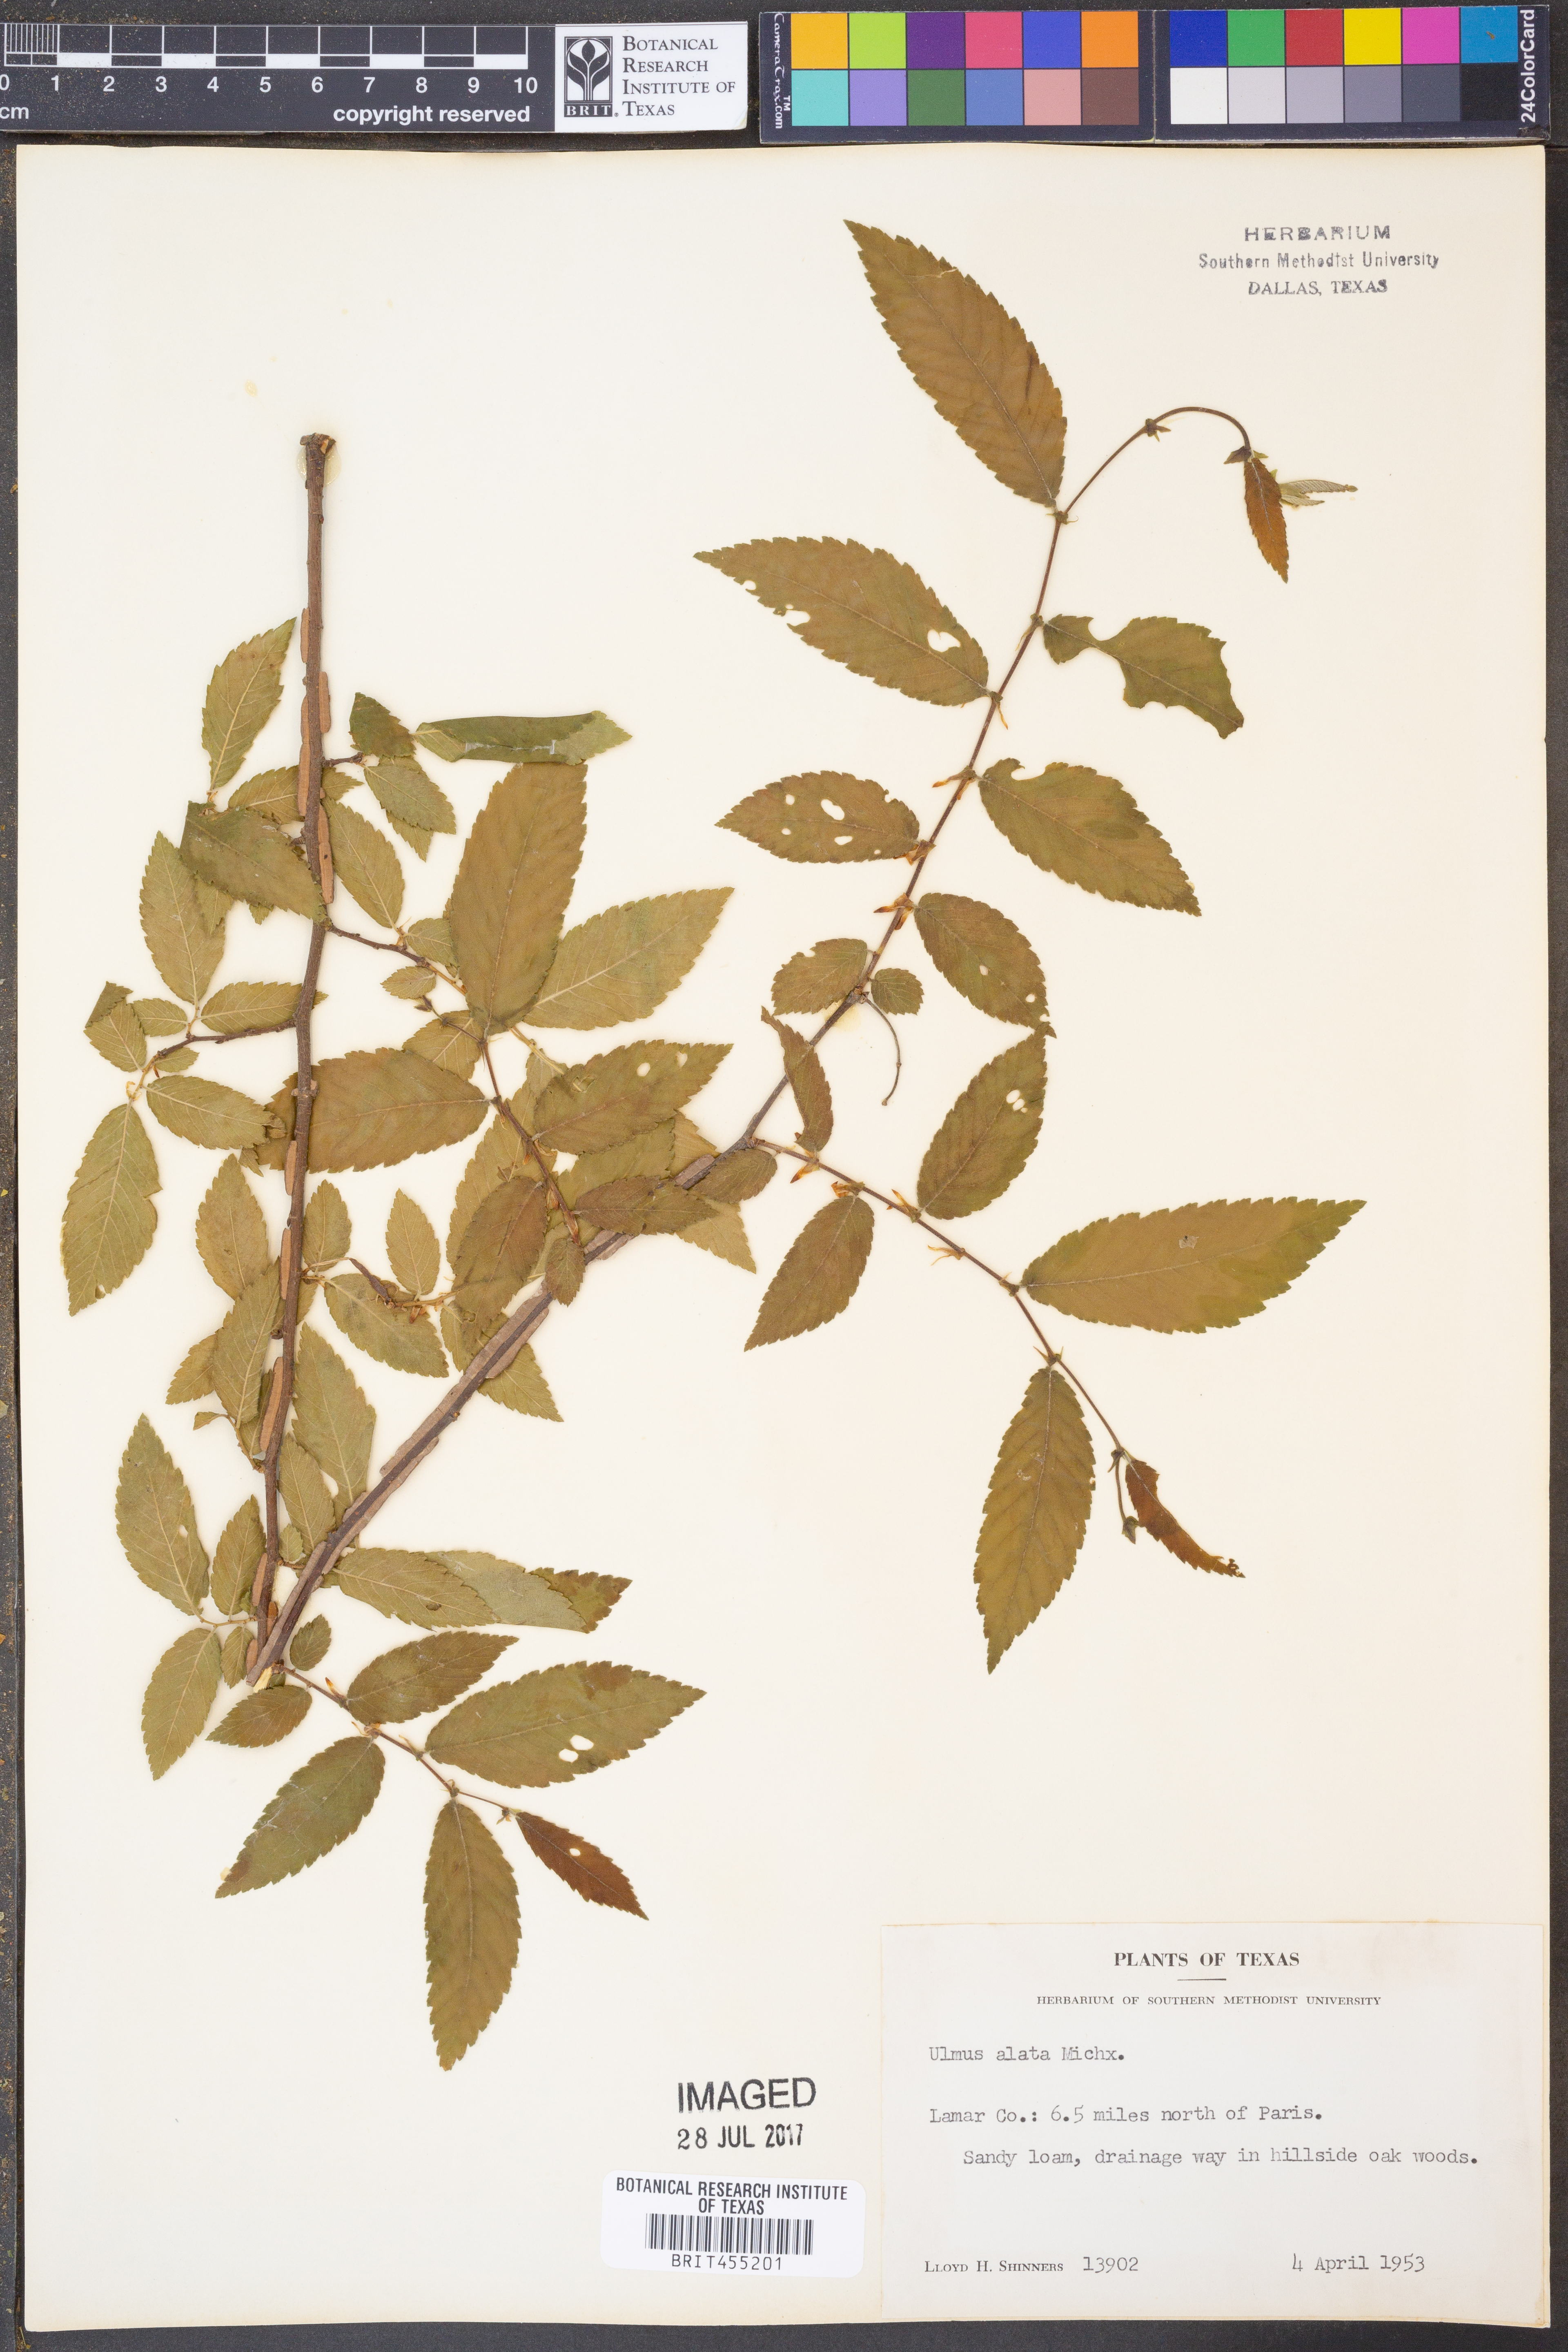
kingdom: Plantae
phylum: Tracheophyta
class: Magnoliopsida
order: Rosales
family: Ulmaceae
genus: Ulmus
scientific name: Ulmus alata
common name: Winged elm
